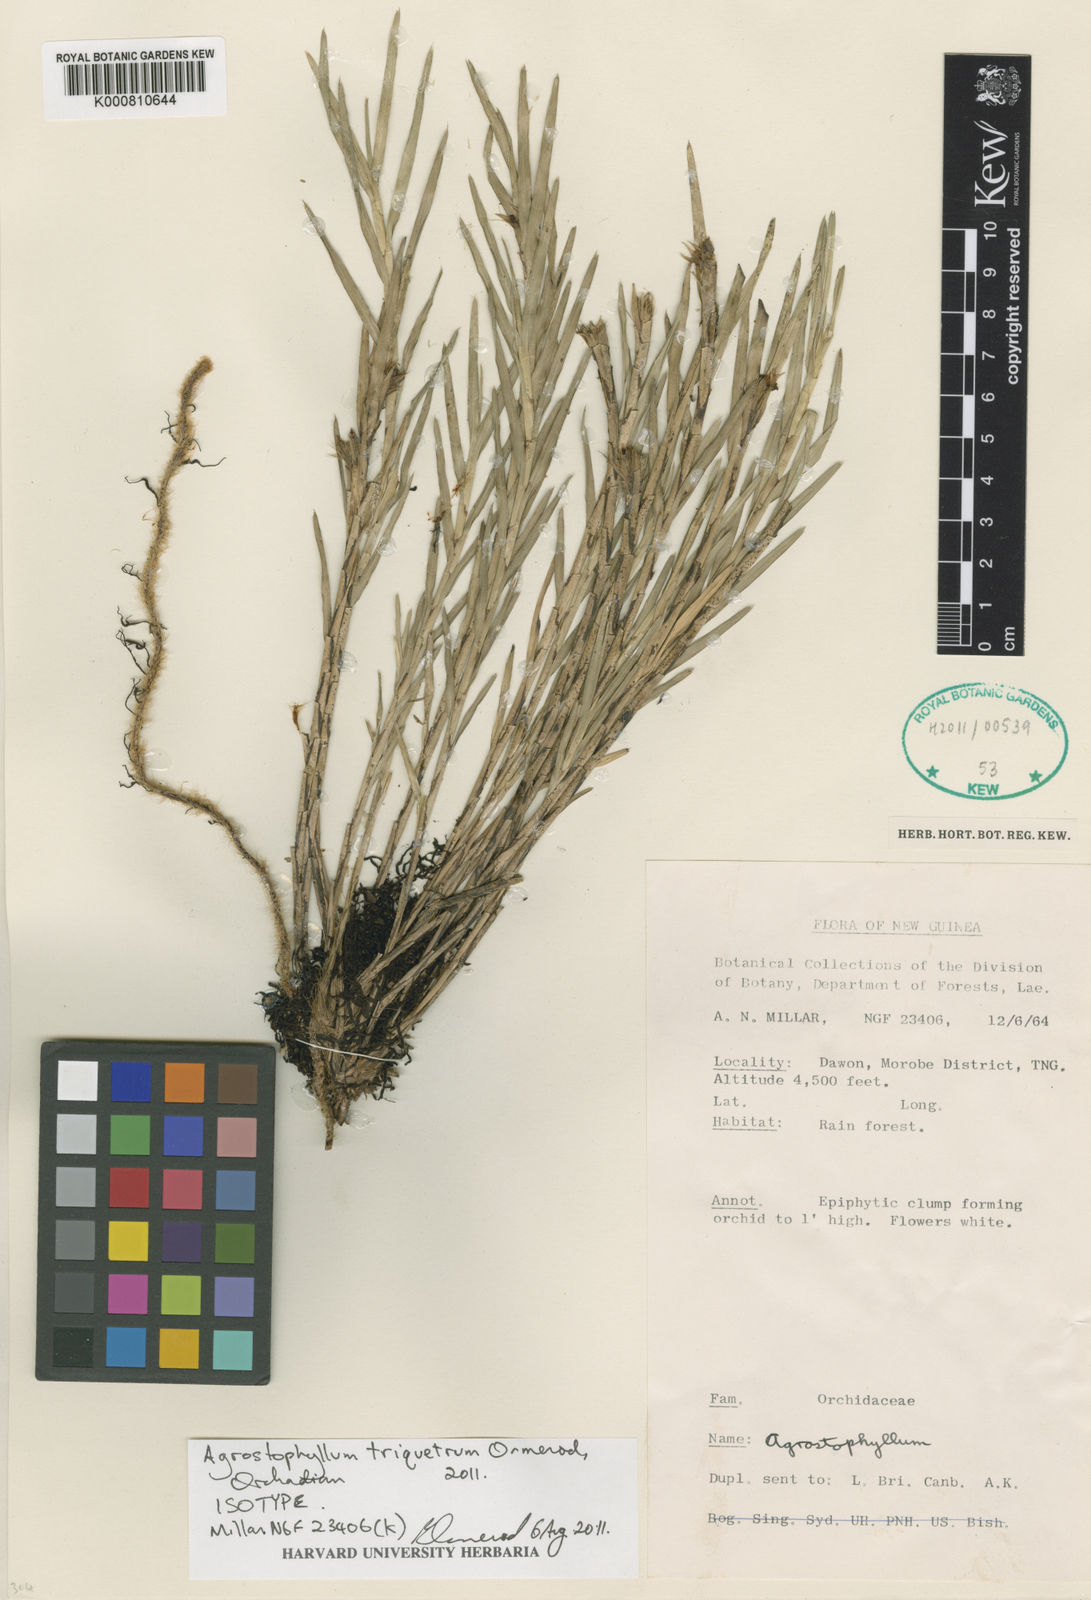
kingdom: Plantae
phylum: Tracheophyta
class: Liliopsida
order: Asparagales
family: Orchidaceae
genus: Agrostophyllum
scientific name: Agrostophyllum triquetrum
